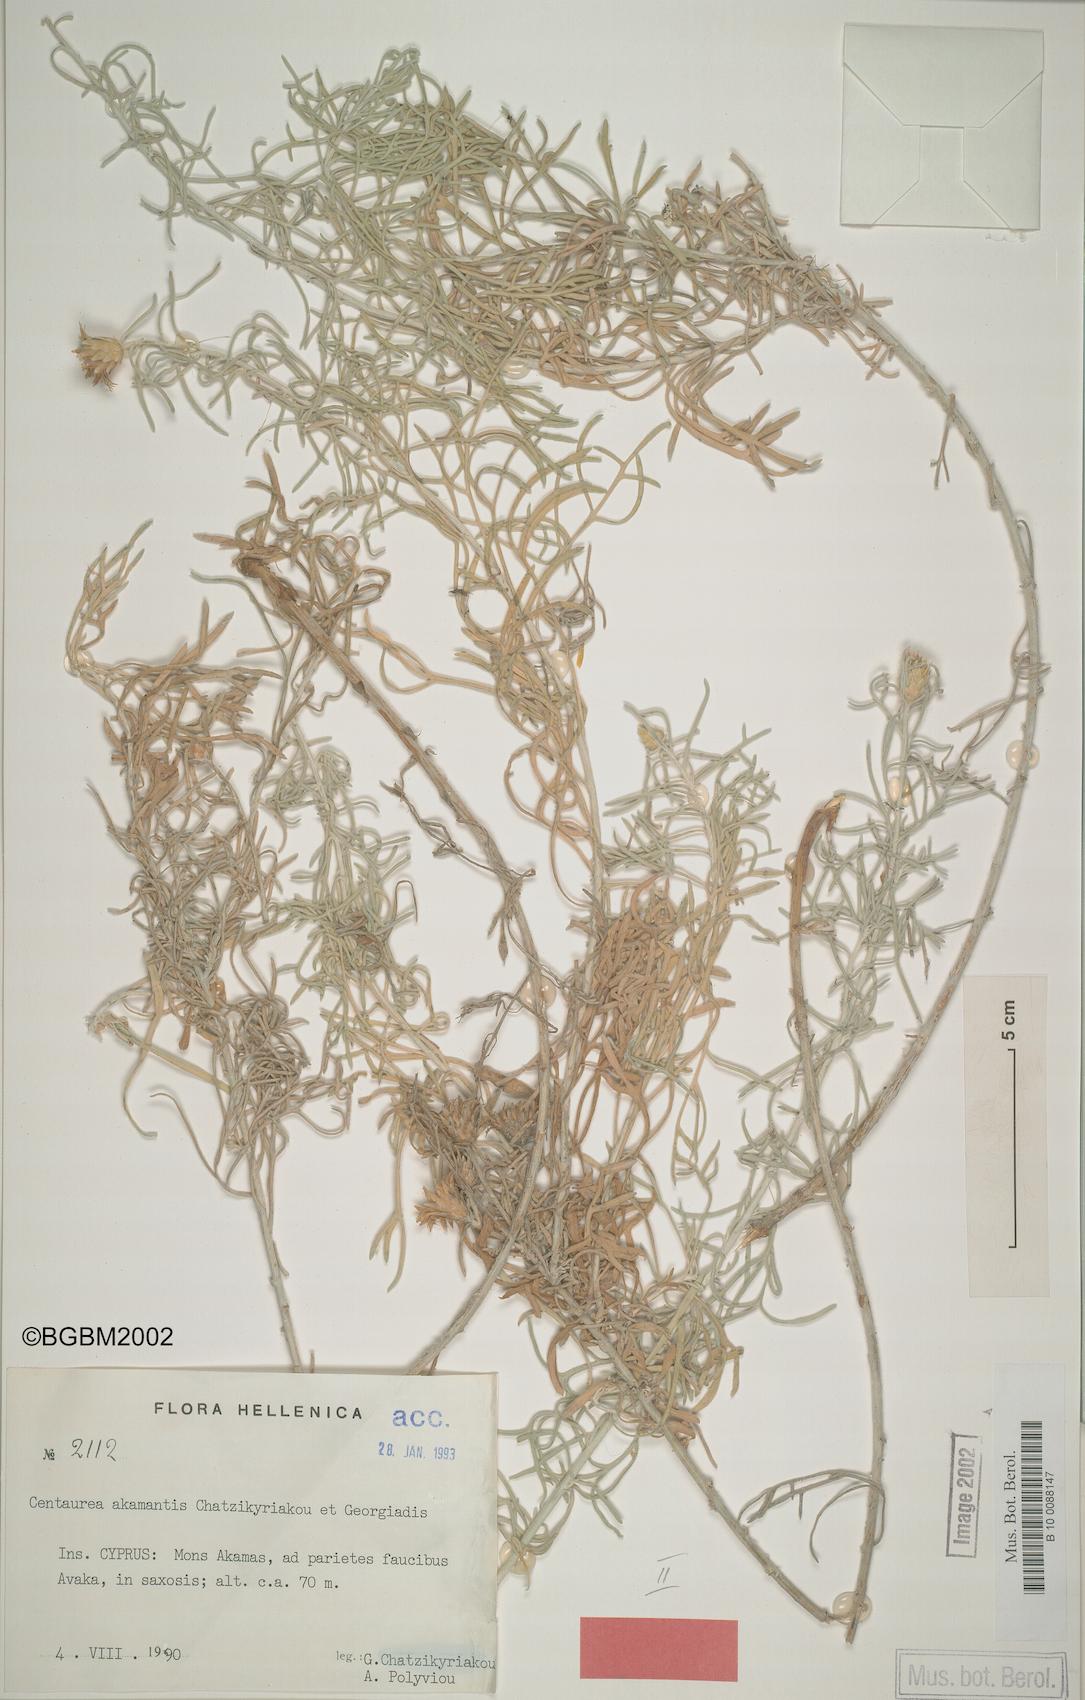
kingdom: Plantae
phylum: Tracheophyta
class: Magnoliopsida
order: Asterales
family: Asteraceae
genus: Centaurea
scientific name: Centaurea akamantis
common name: Akamas centaury
